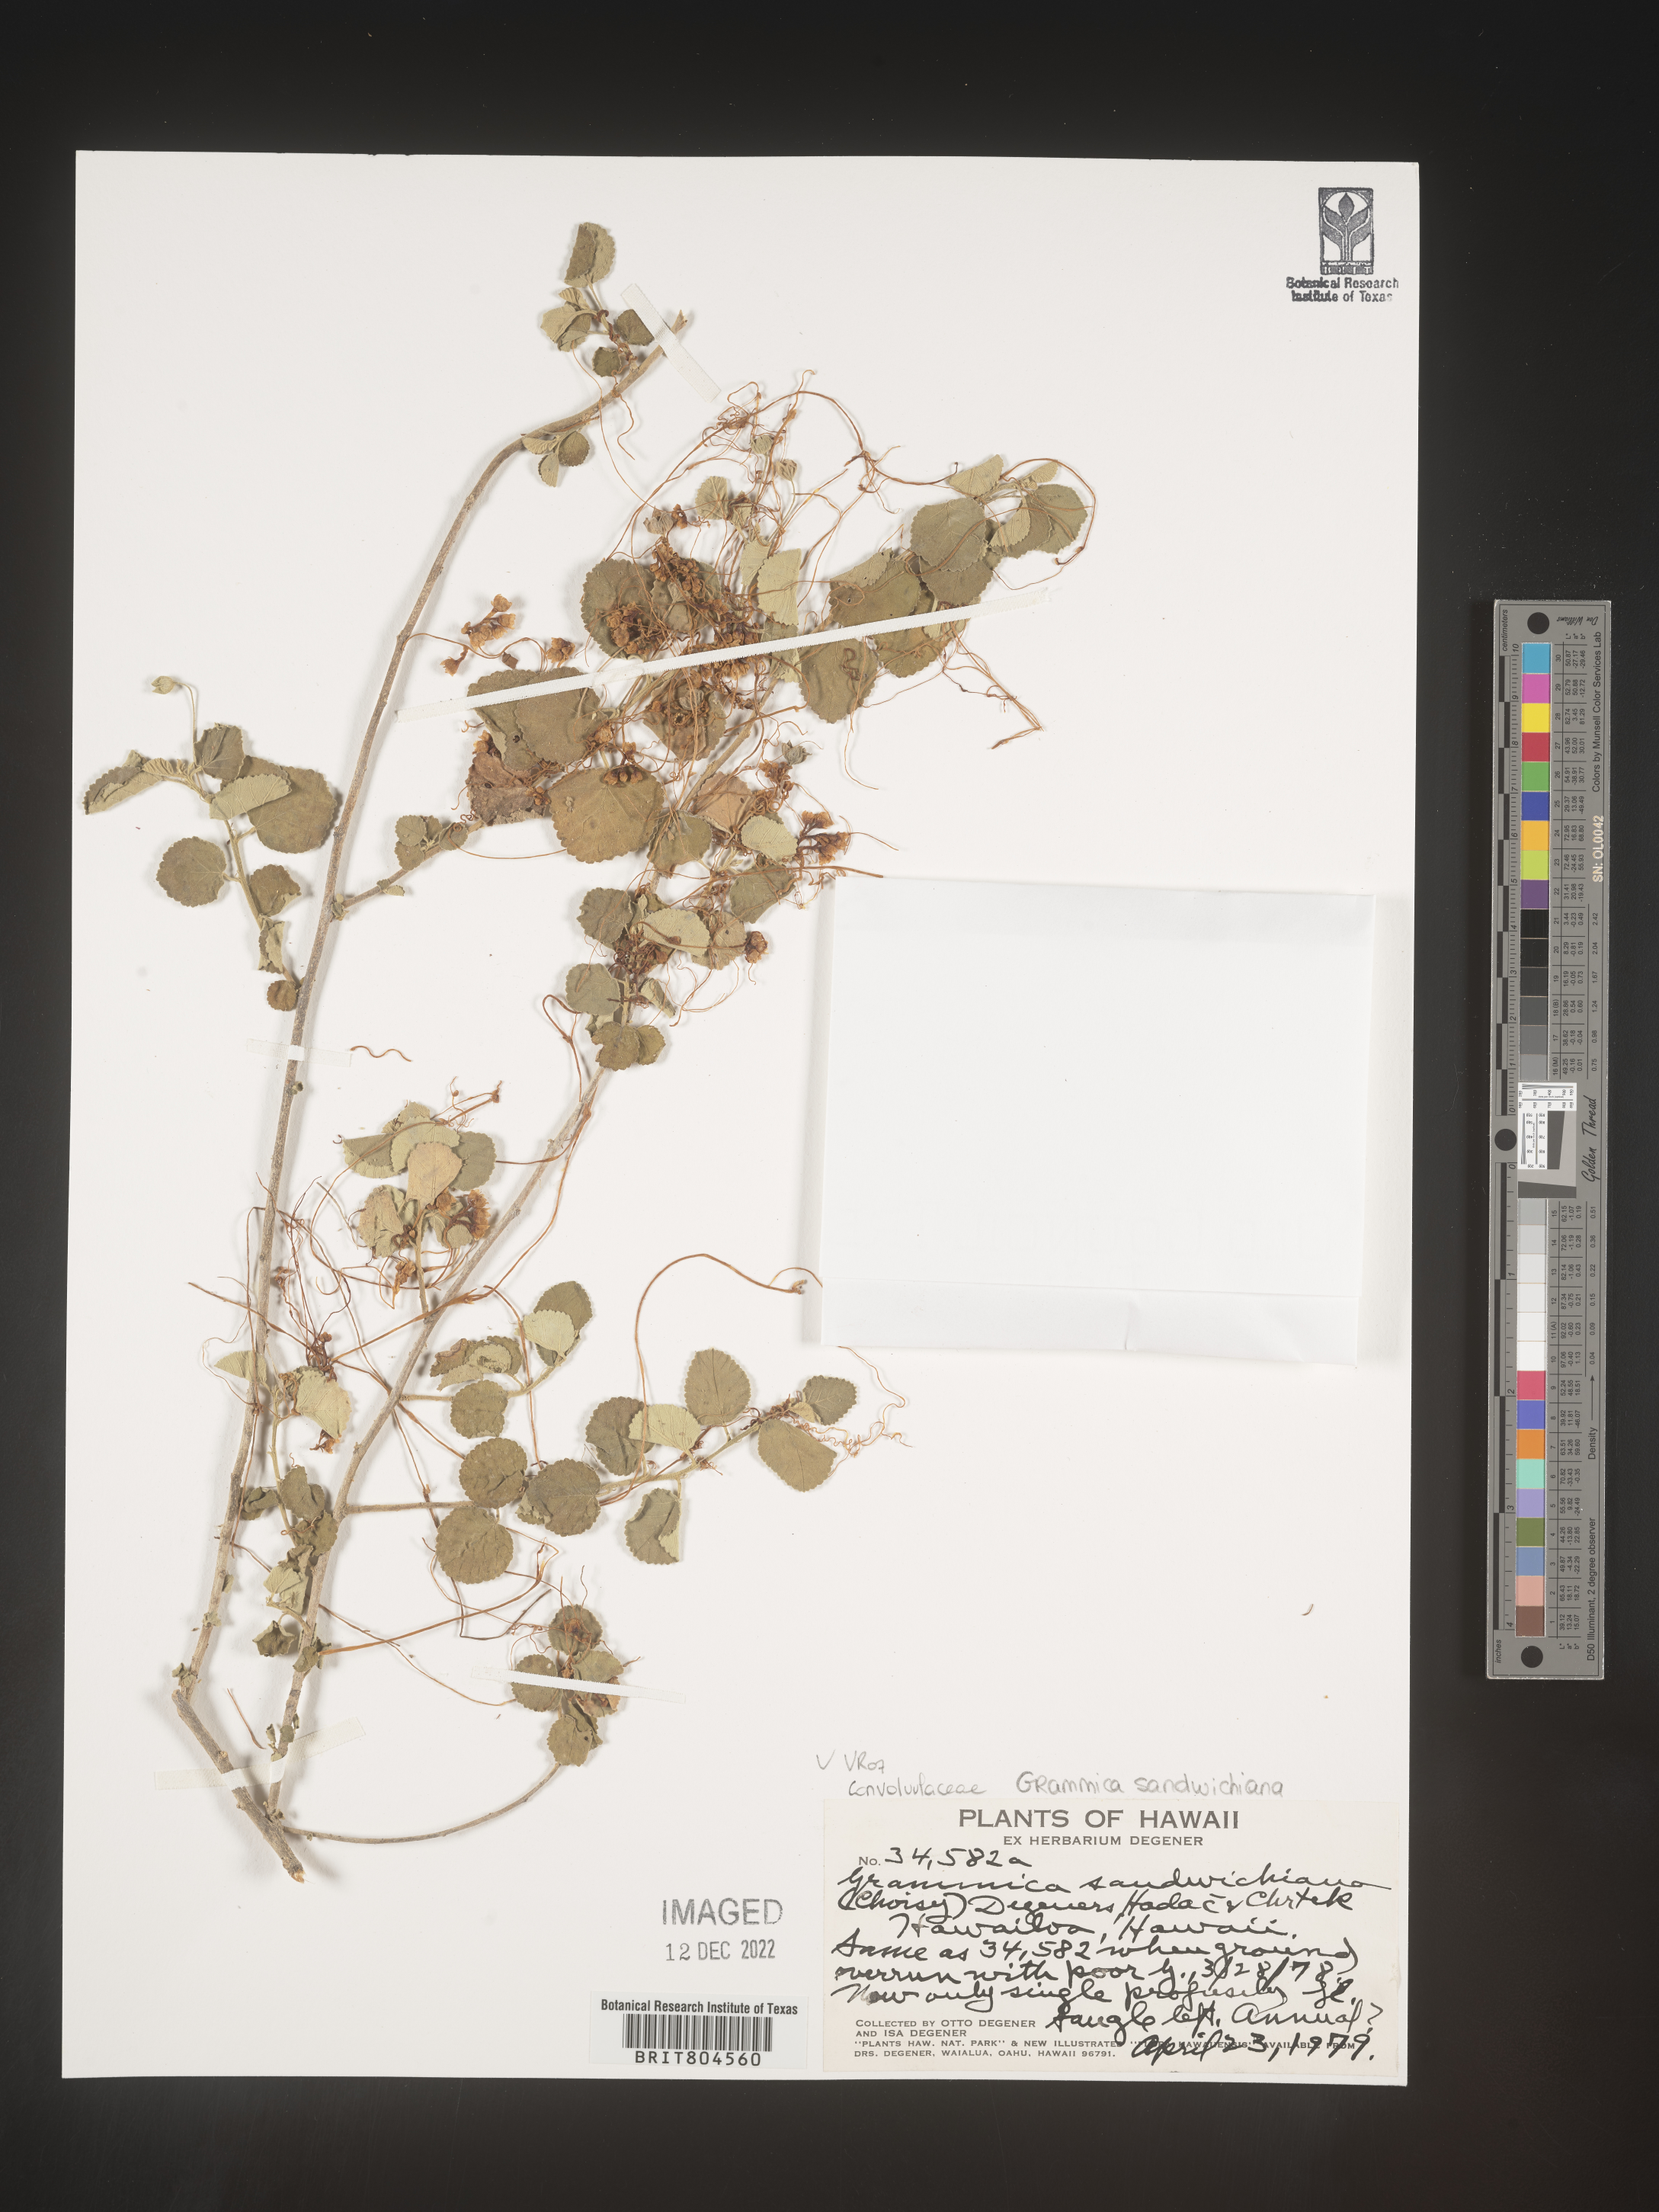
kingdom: Plantae
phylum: Tracheophyta
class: Magnoliopsida
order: Solanales
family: Convolvulaceae
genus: Cuscuta
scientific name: Cuscuta
